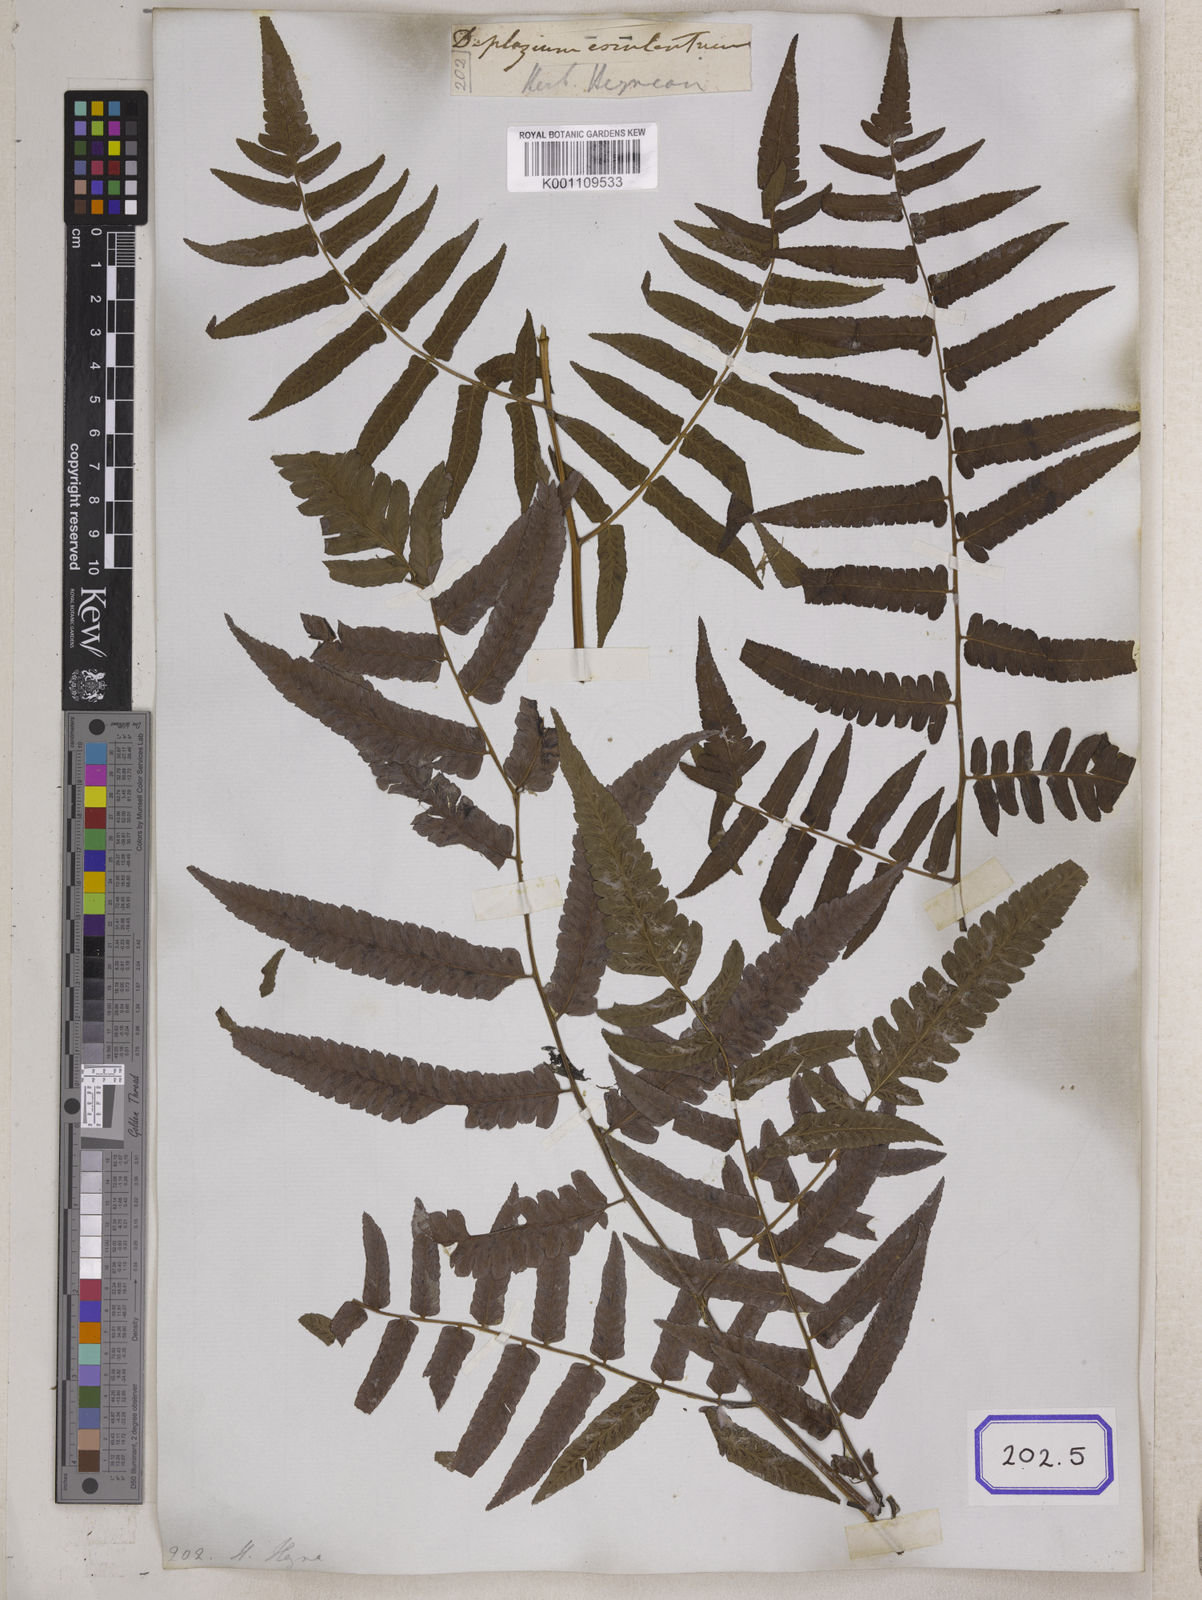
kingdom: Plantae
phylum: Tracheophyta
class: Polypodiopsida
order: Polypodiales
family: Aspleniaceae
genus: Asplenium
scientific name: Asplenium
